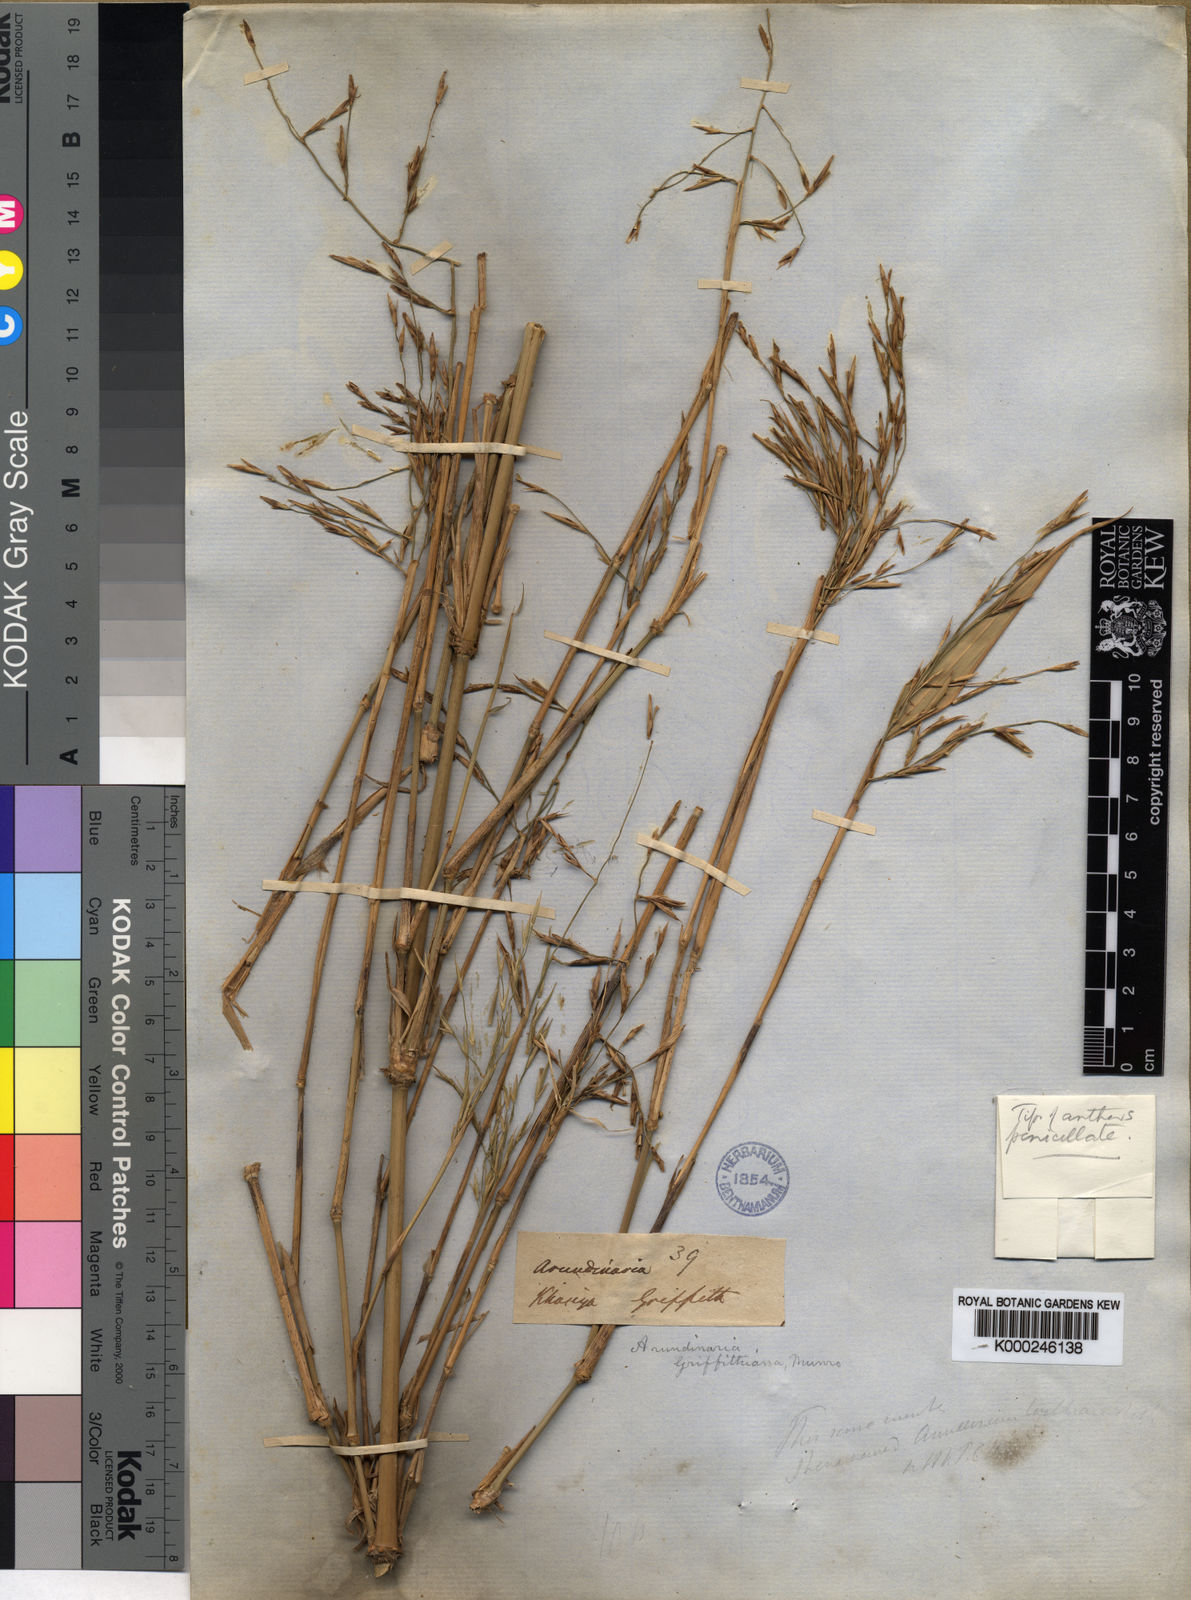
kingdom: Plantae
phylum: Tracheophyta
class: Liliopsida
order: Poales
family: Poaceae
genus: Chimonocalamus
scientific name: Chimonocalamus griffithianus
